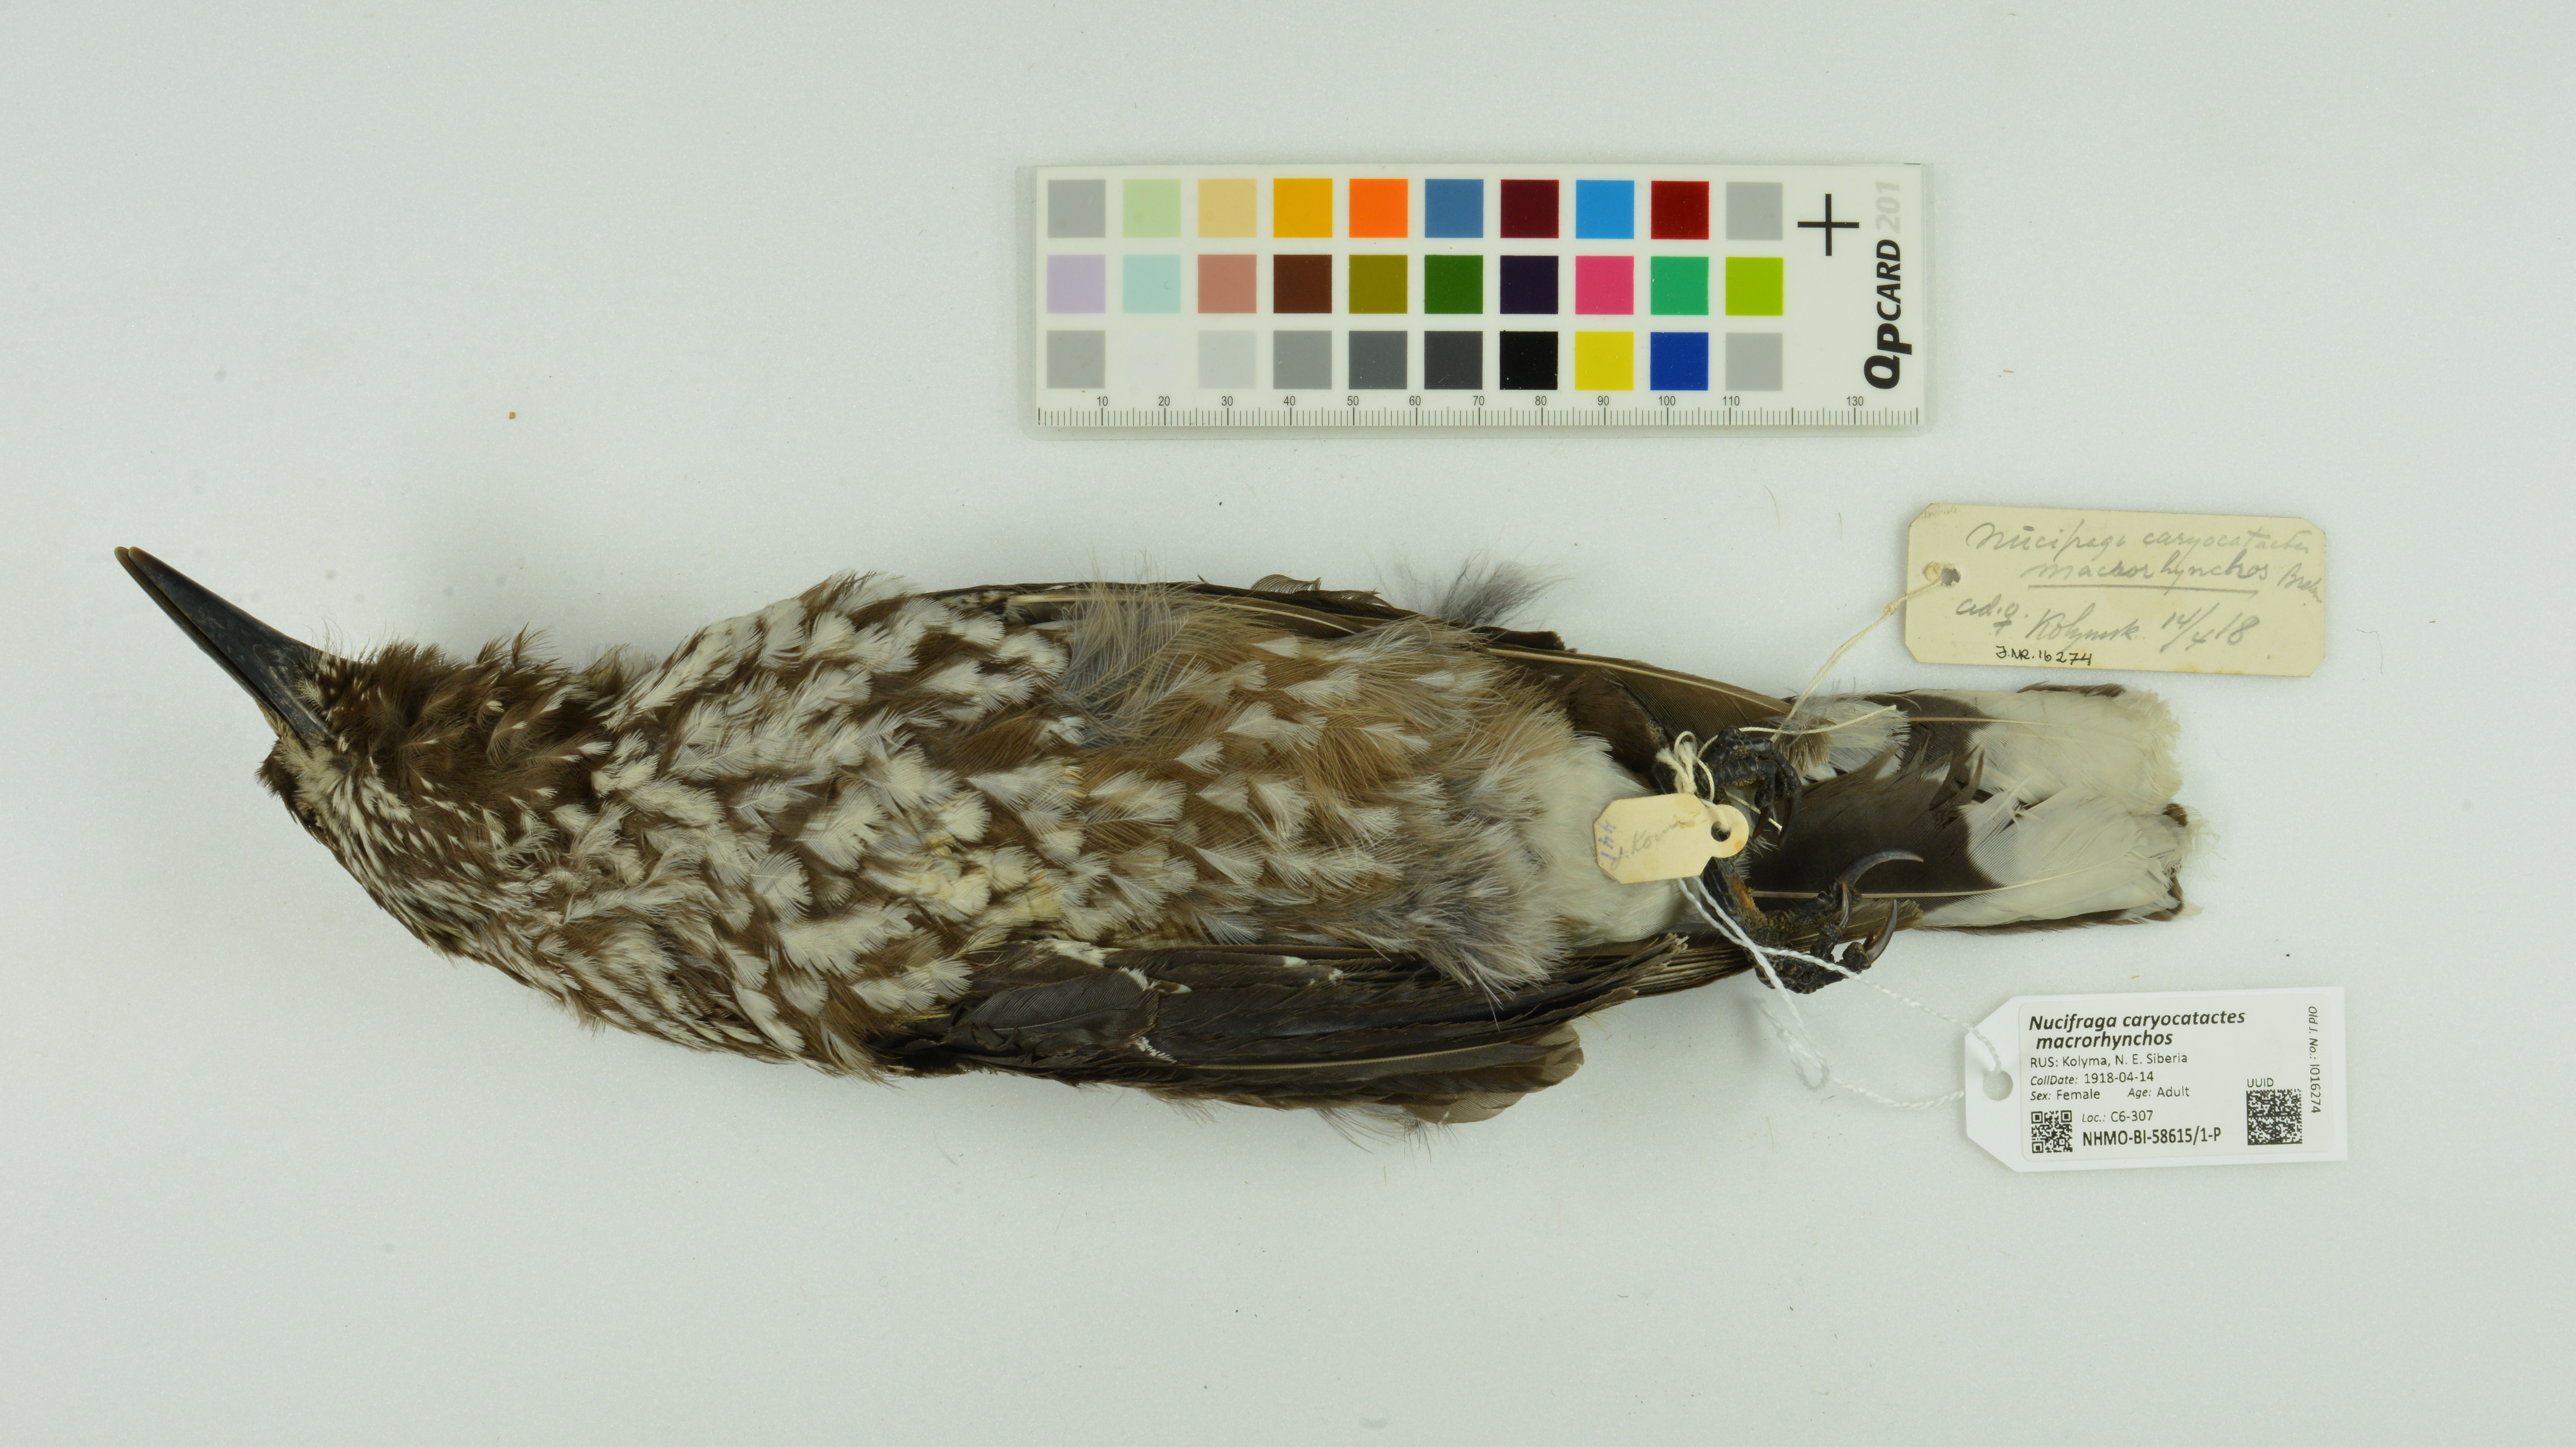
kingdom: Animalia
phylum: Chordata
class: Aves
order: Passeriformes
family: Corvidae
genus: Nucifraga
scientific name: Nucifraga caryocatactes
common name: Spotted nutcracker
